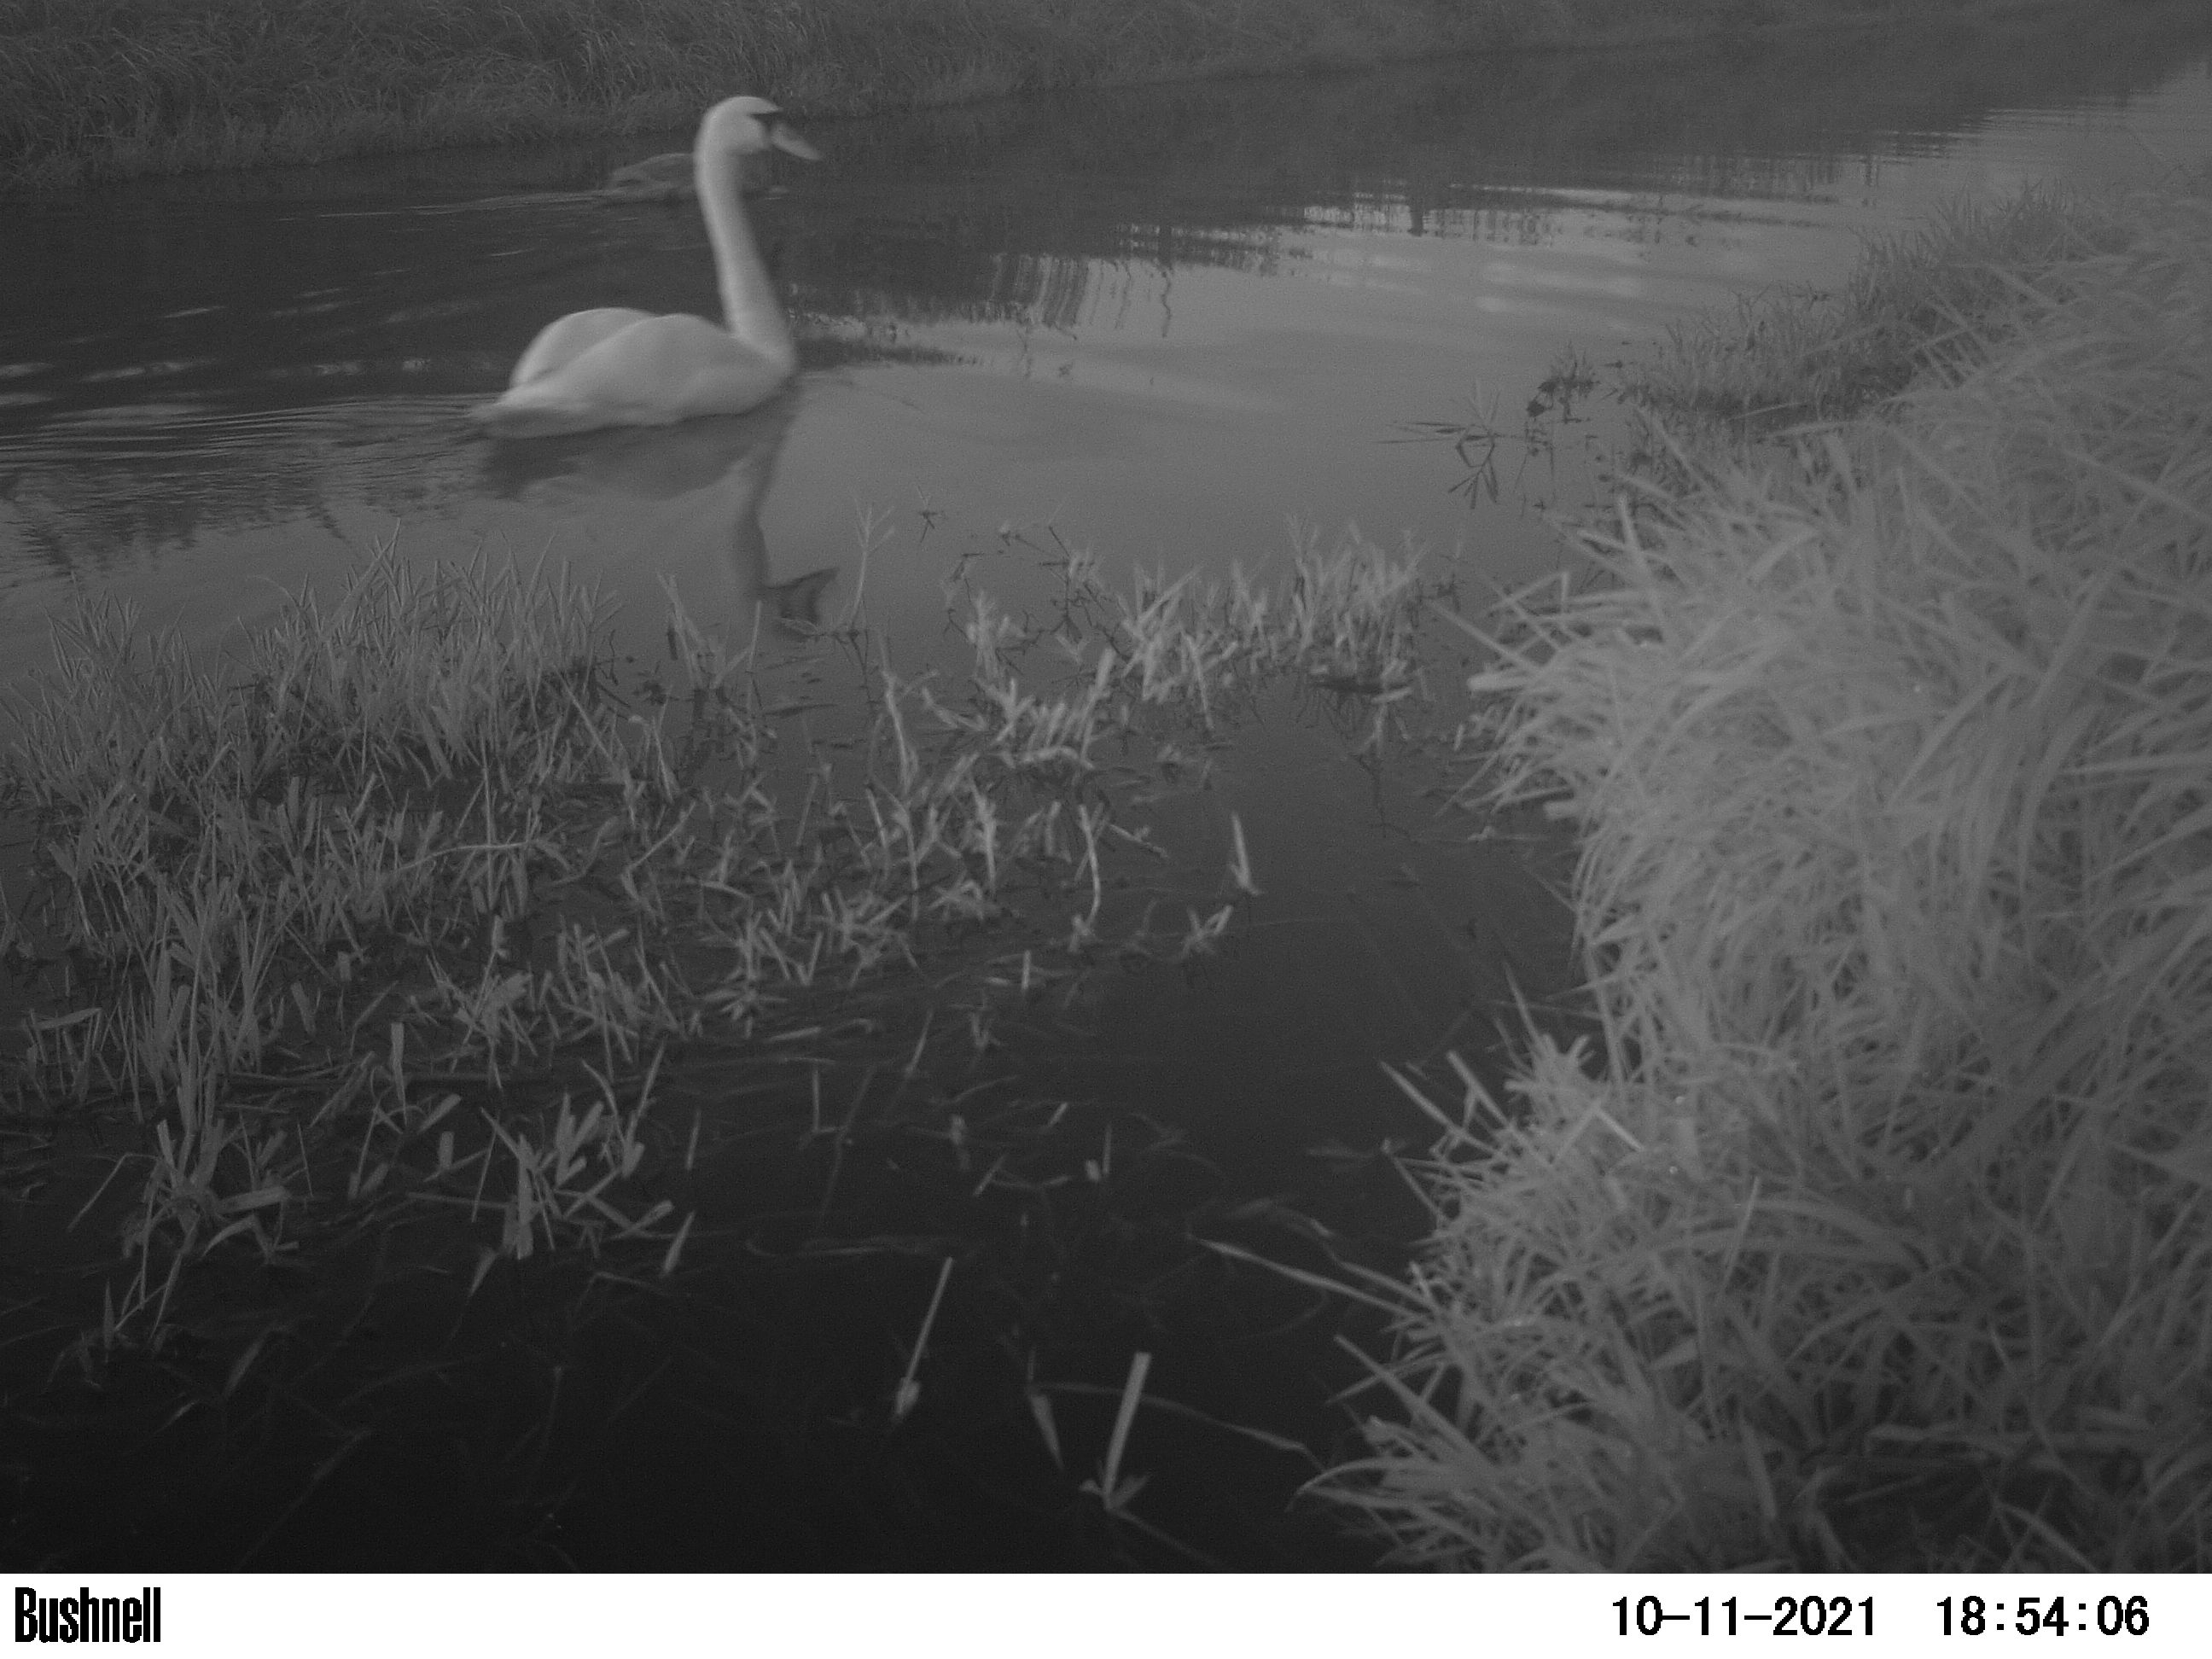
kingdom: Animalia
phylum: Chordata
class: Aves
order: Anseriformes
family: Anatidae
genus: Cygnus
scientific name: Cygnus olor
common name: Mute swan
